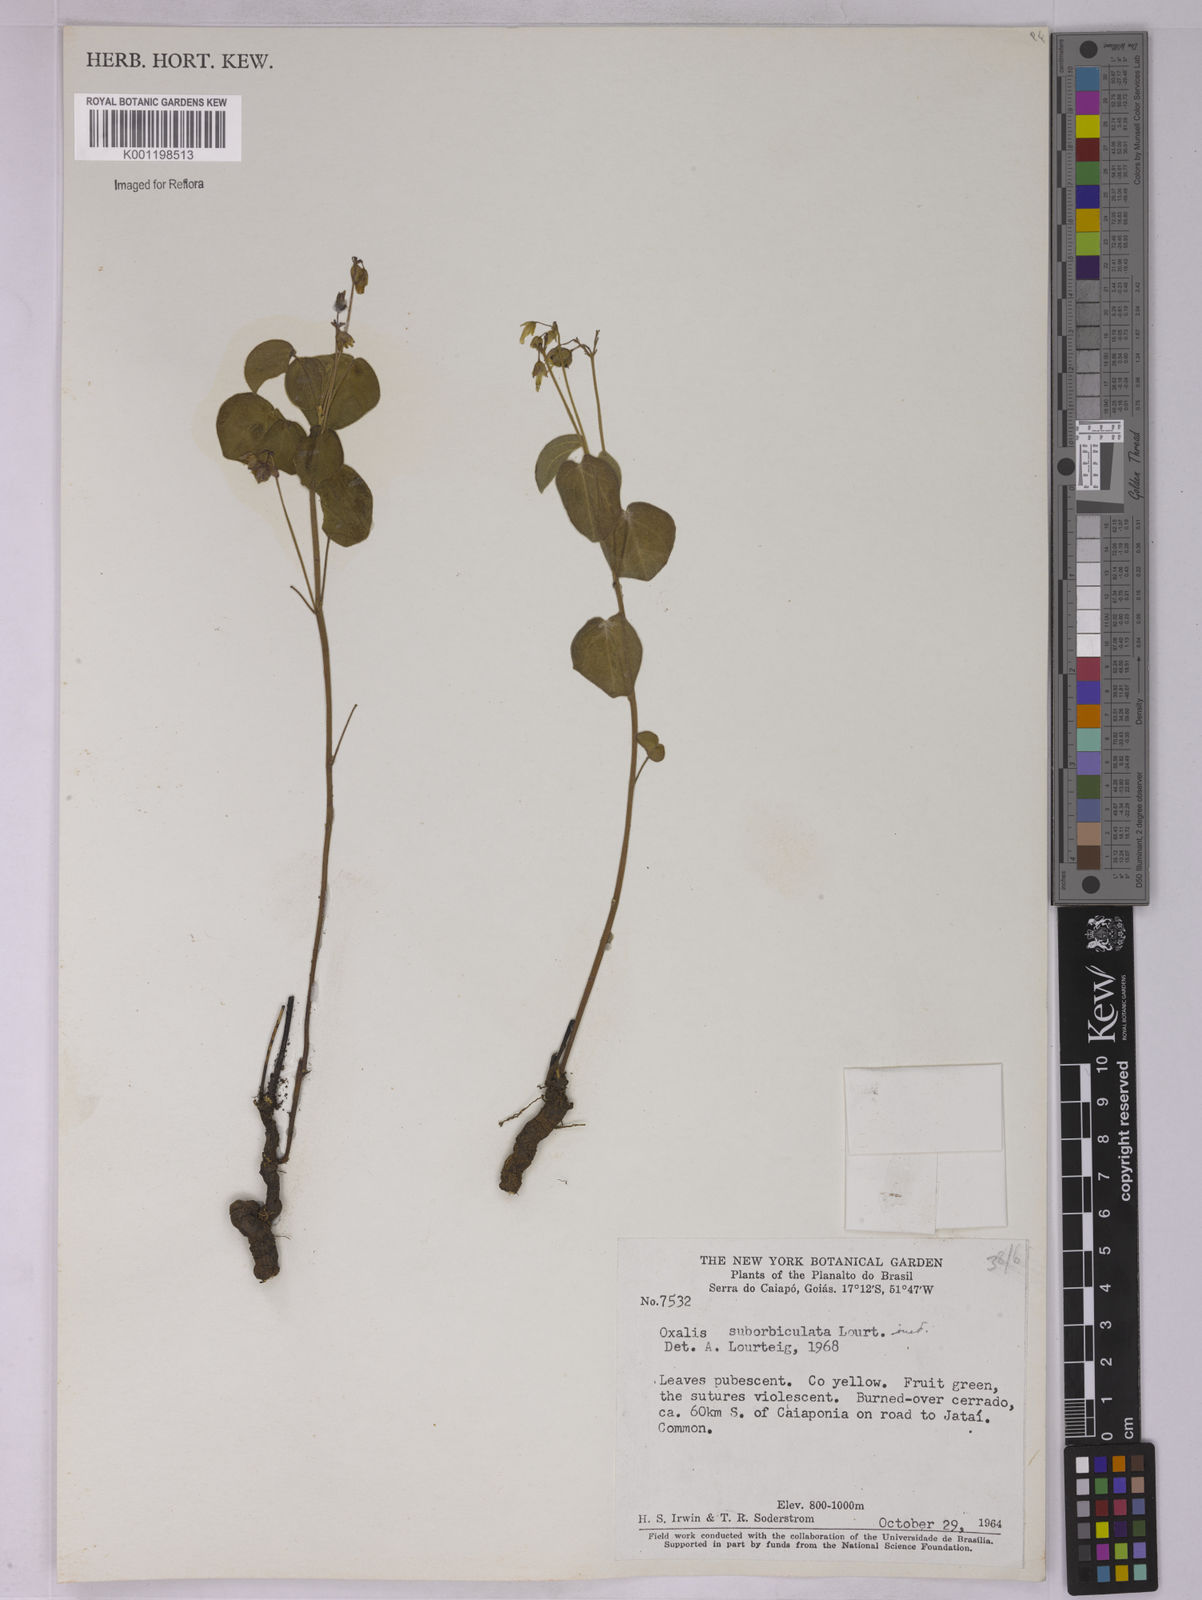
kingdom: Plantae
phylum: Tracheophyta
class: Magnoliopsida
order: Oxalidales
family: Oxalidaceae
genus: Oxalis
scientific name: Oxalis suborbiculata
